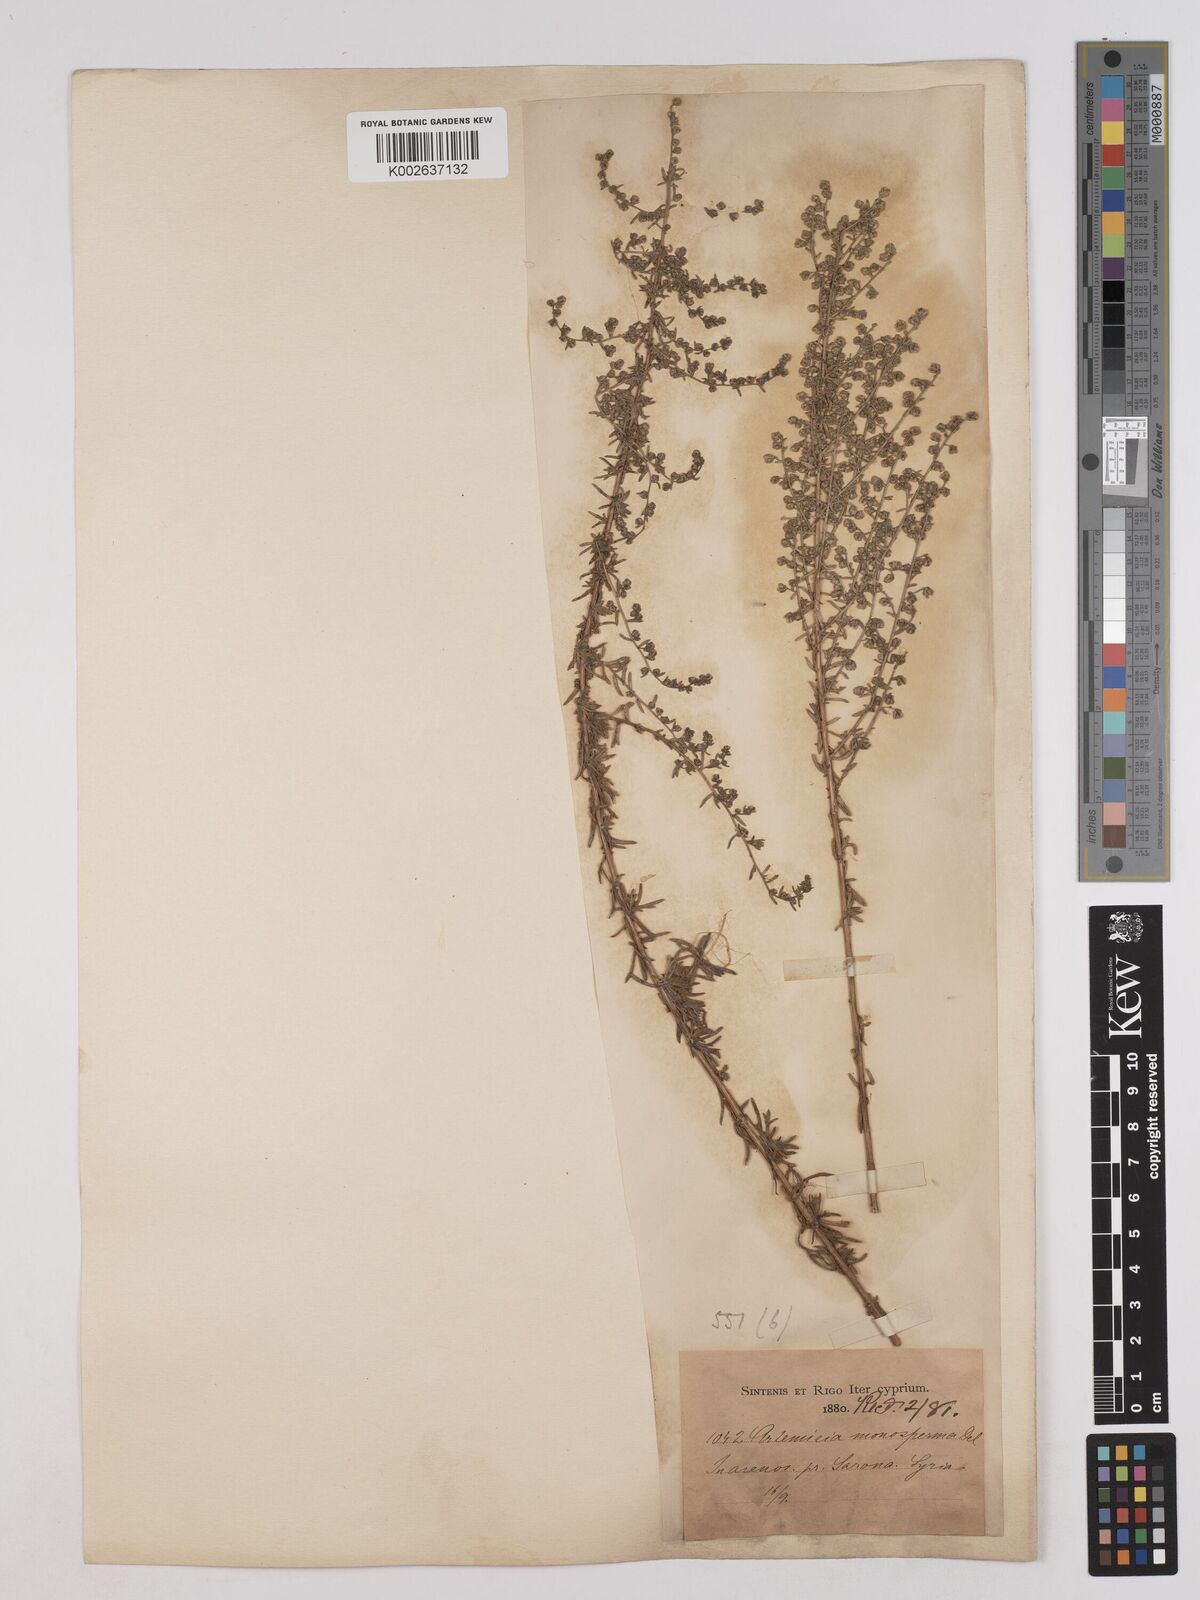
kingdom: Plantae
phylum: Tracheophyta
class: Magnoliopsida
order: Asterales
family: Asteraceae
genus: Artemisia
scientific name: Artemisia monosperma
